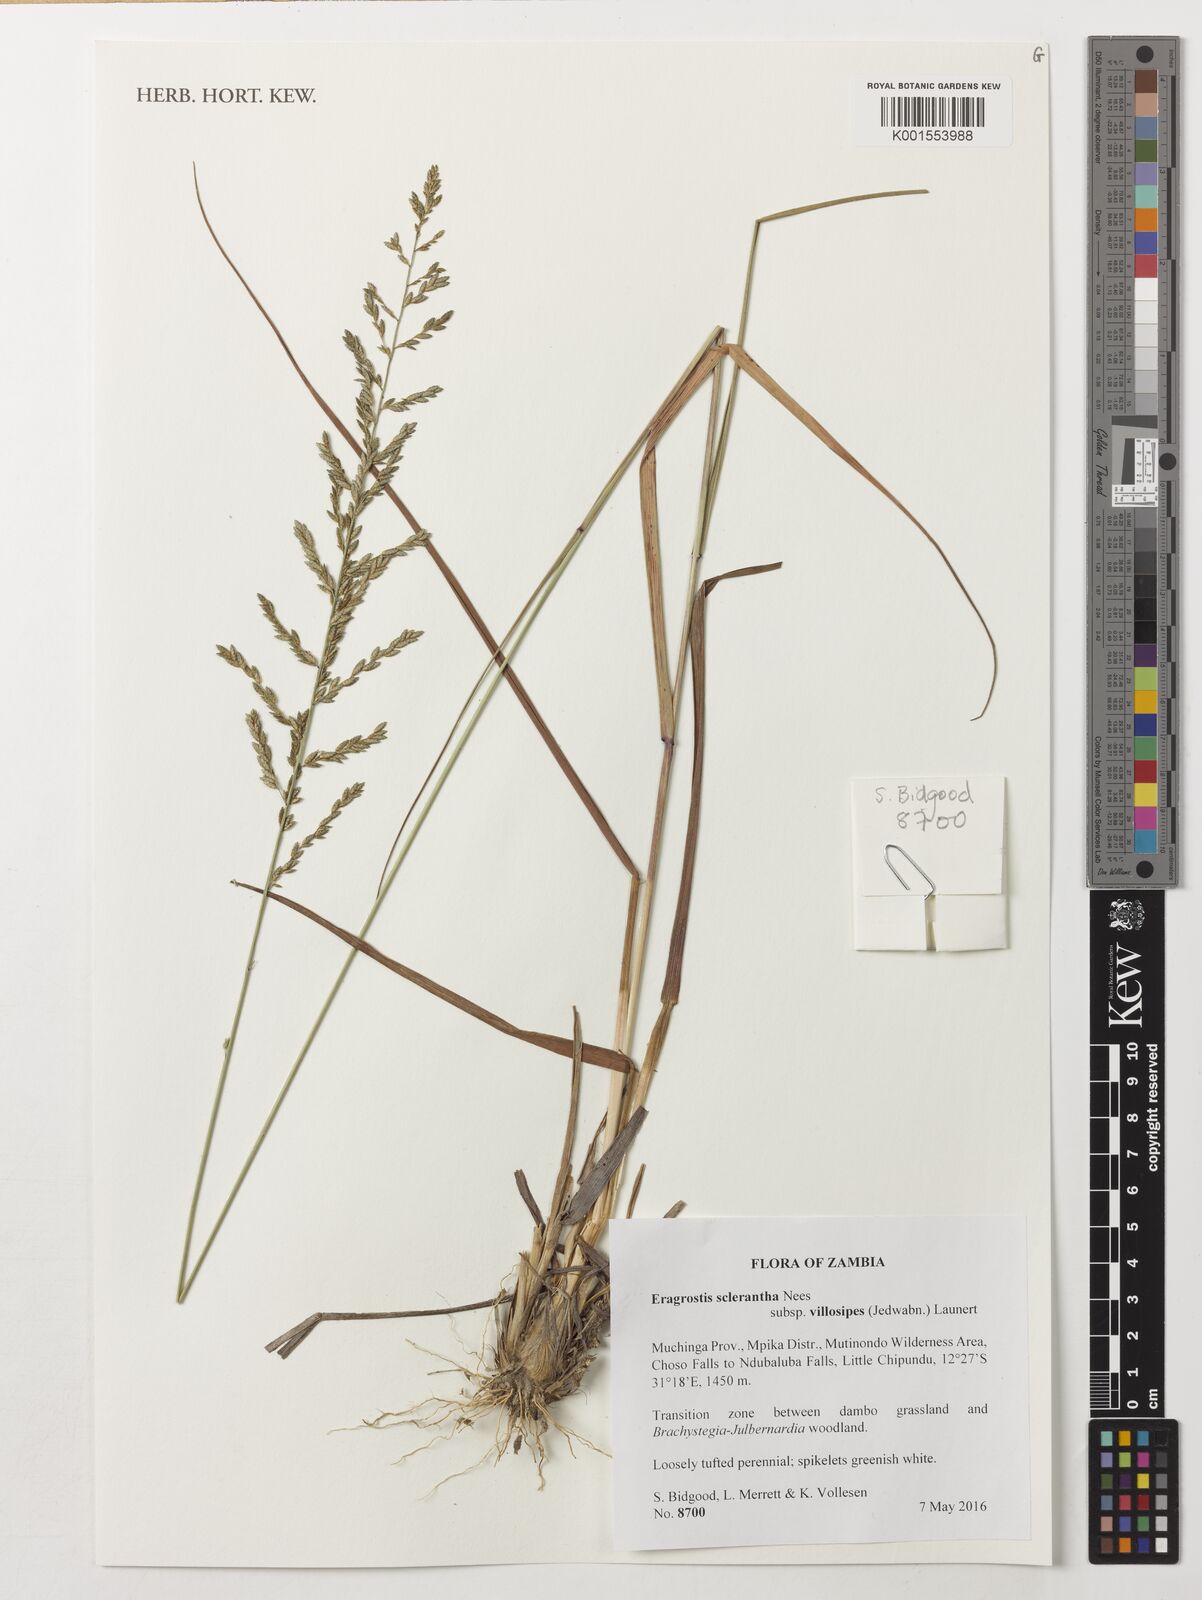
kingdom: Plantae
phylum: Tracheophyta
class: Liliopsida
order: Poales
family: Poaceae
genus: Eragrostis
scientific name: Eragrostis sclerantha
